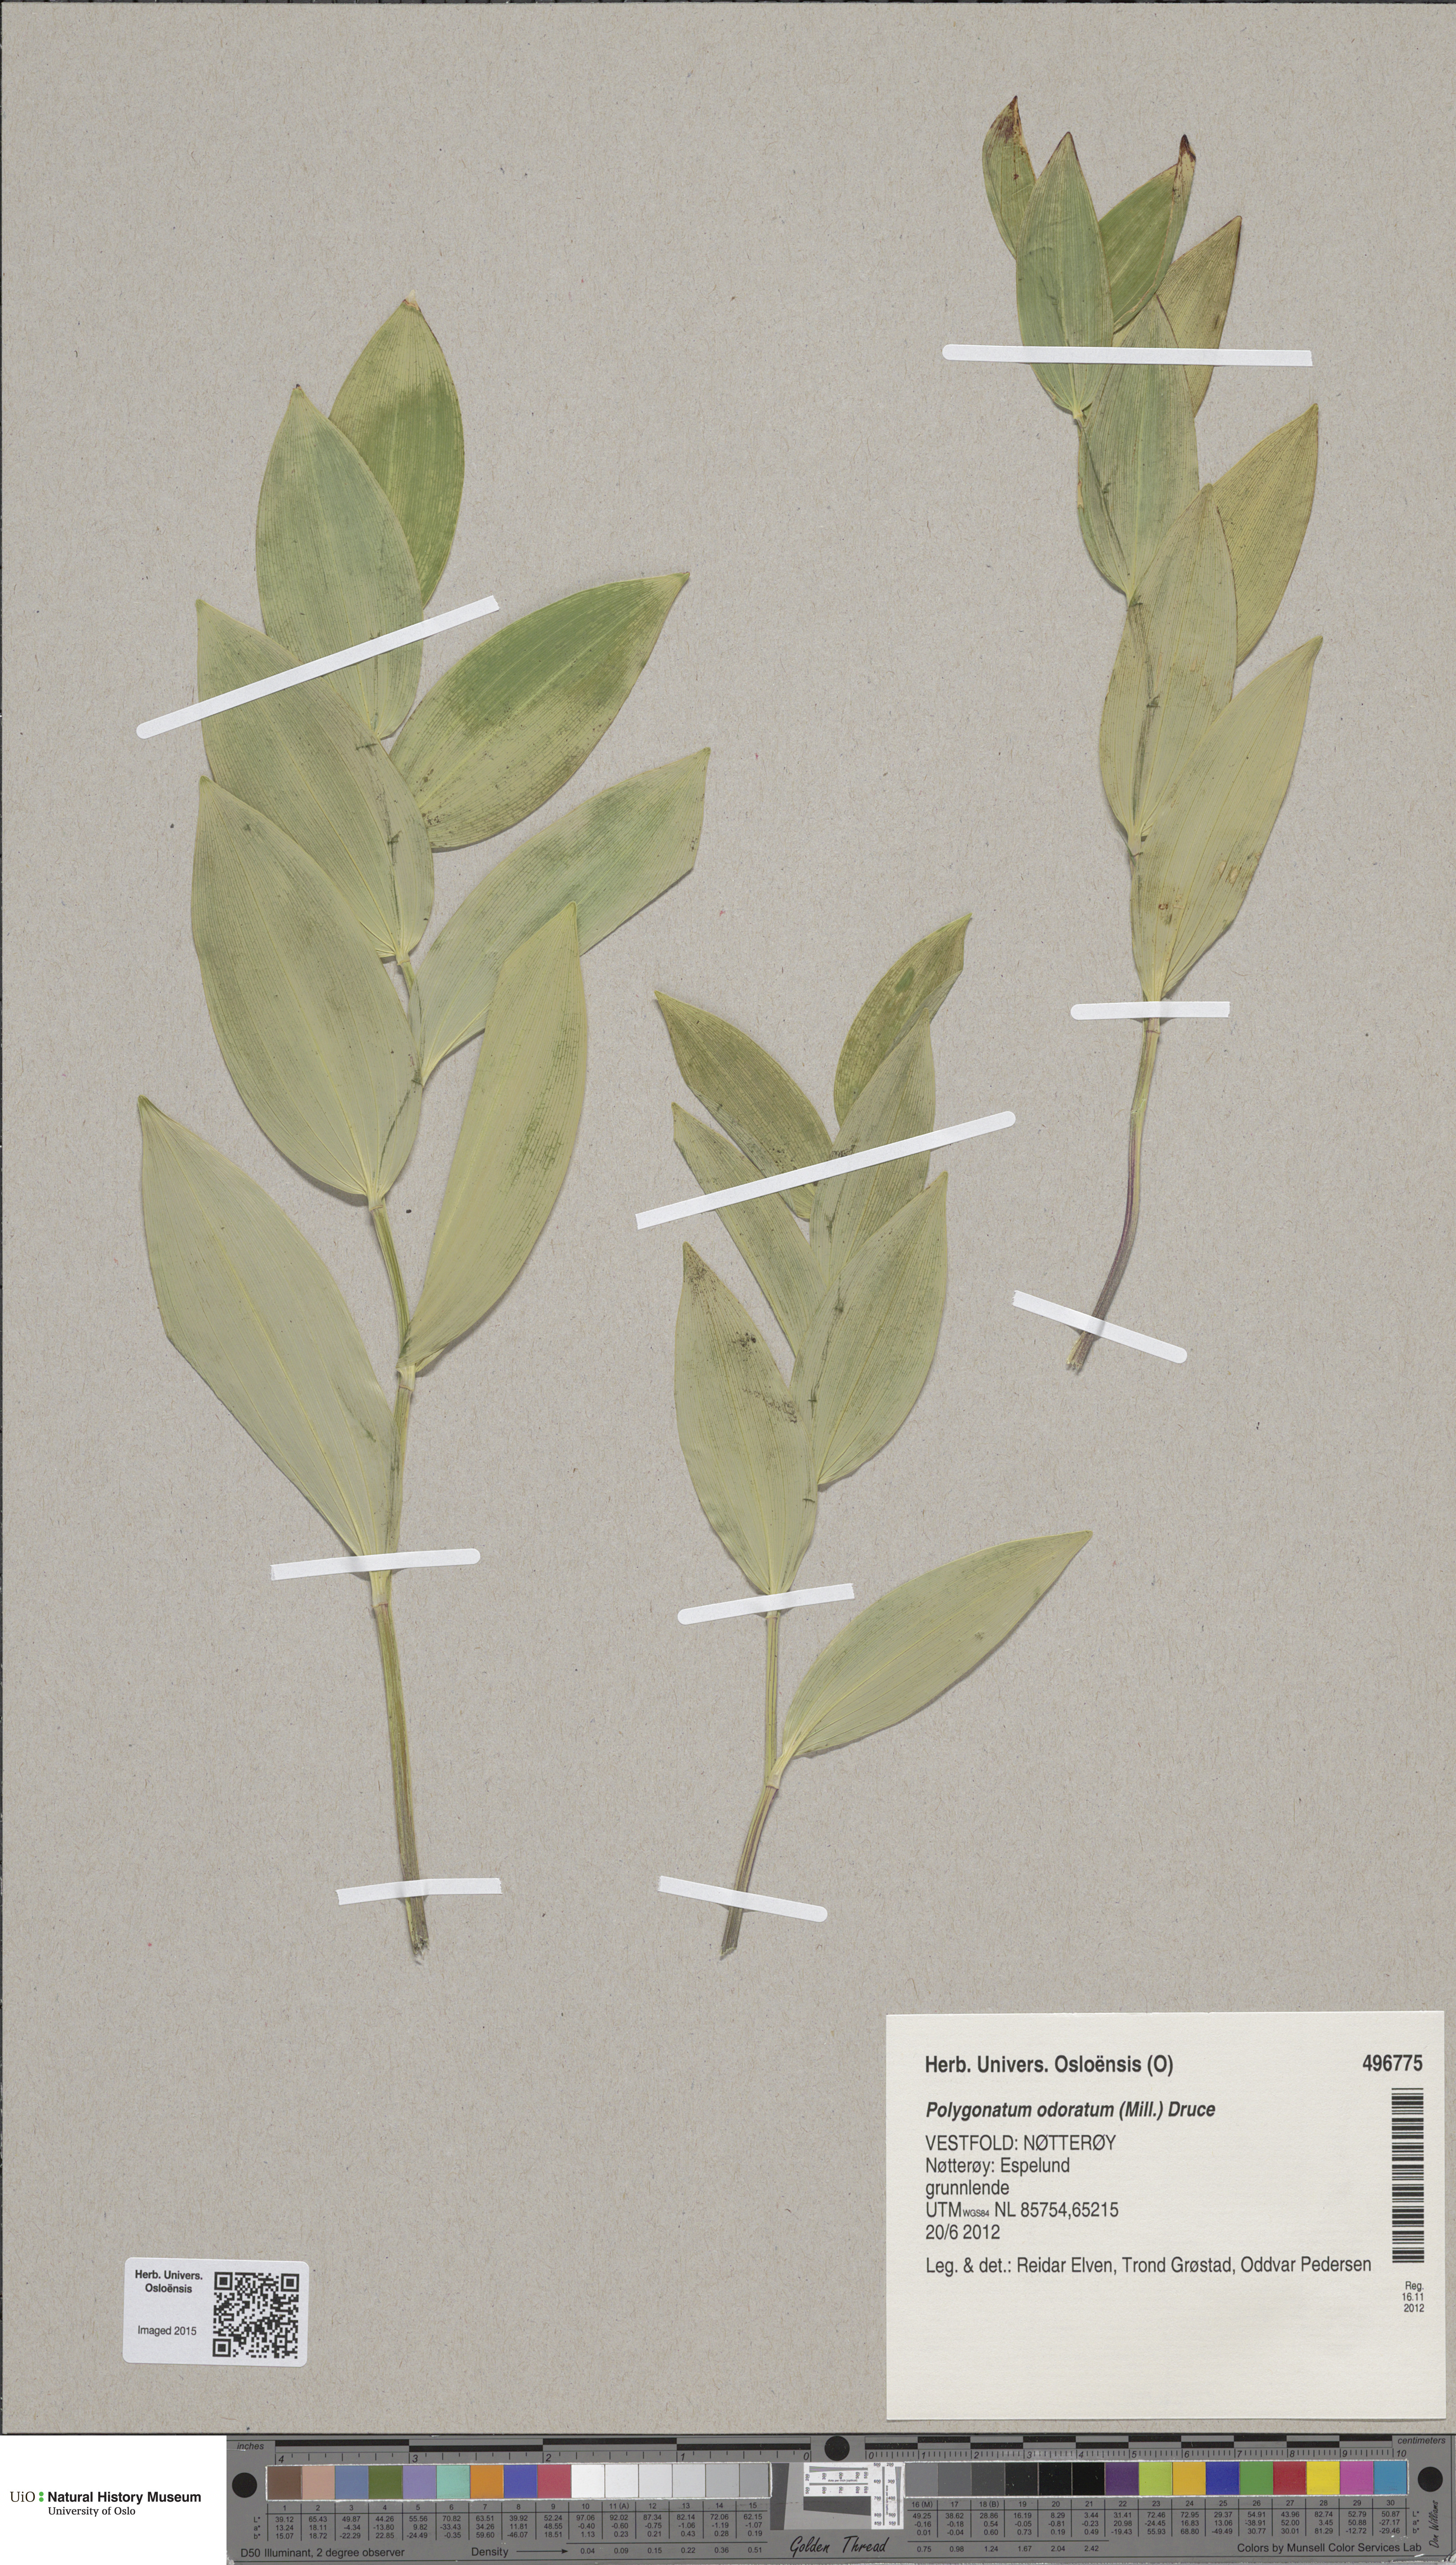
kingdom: Plantae
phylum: Tracheophyta
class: Liliopsida
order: Asparagales
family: Asparagaceae
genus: Polygonatum
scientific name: Polygonatum odoratum
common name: Angular solomon's-seal
